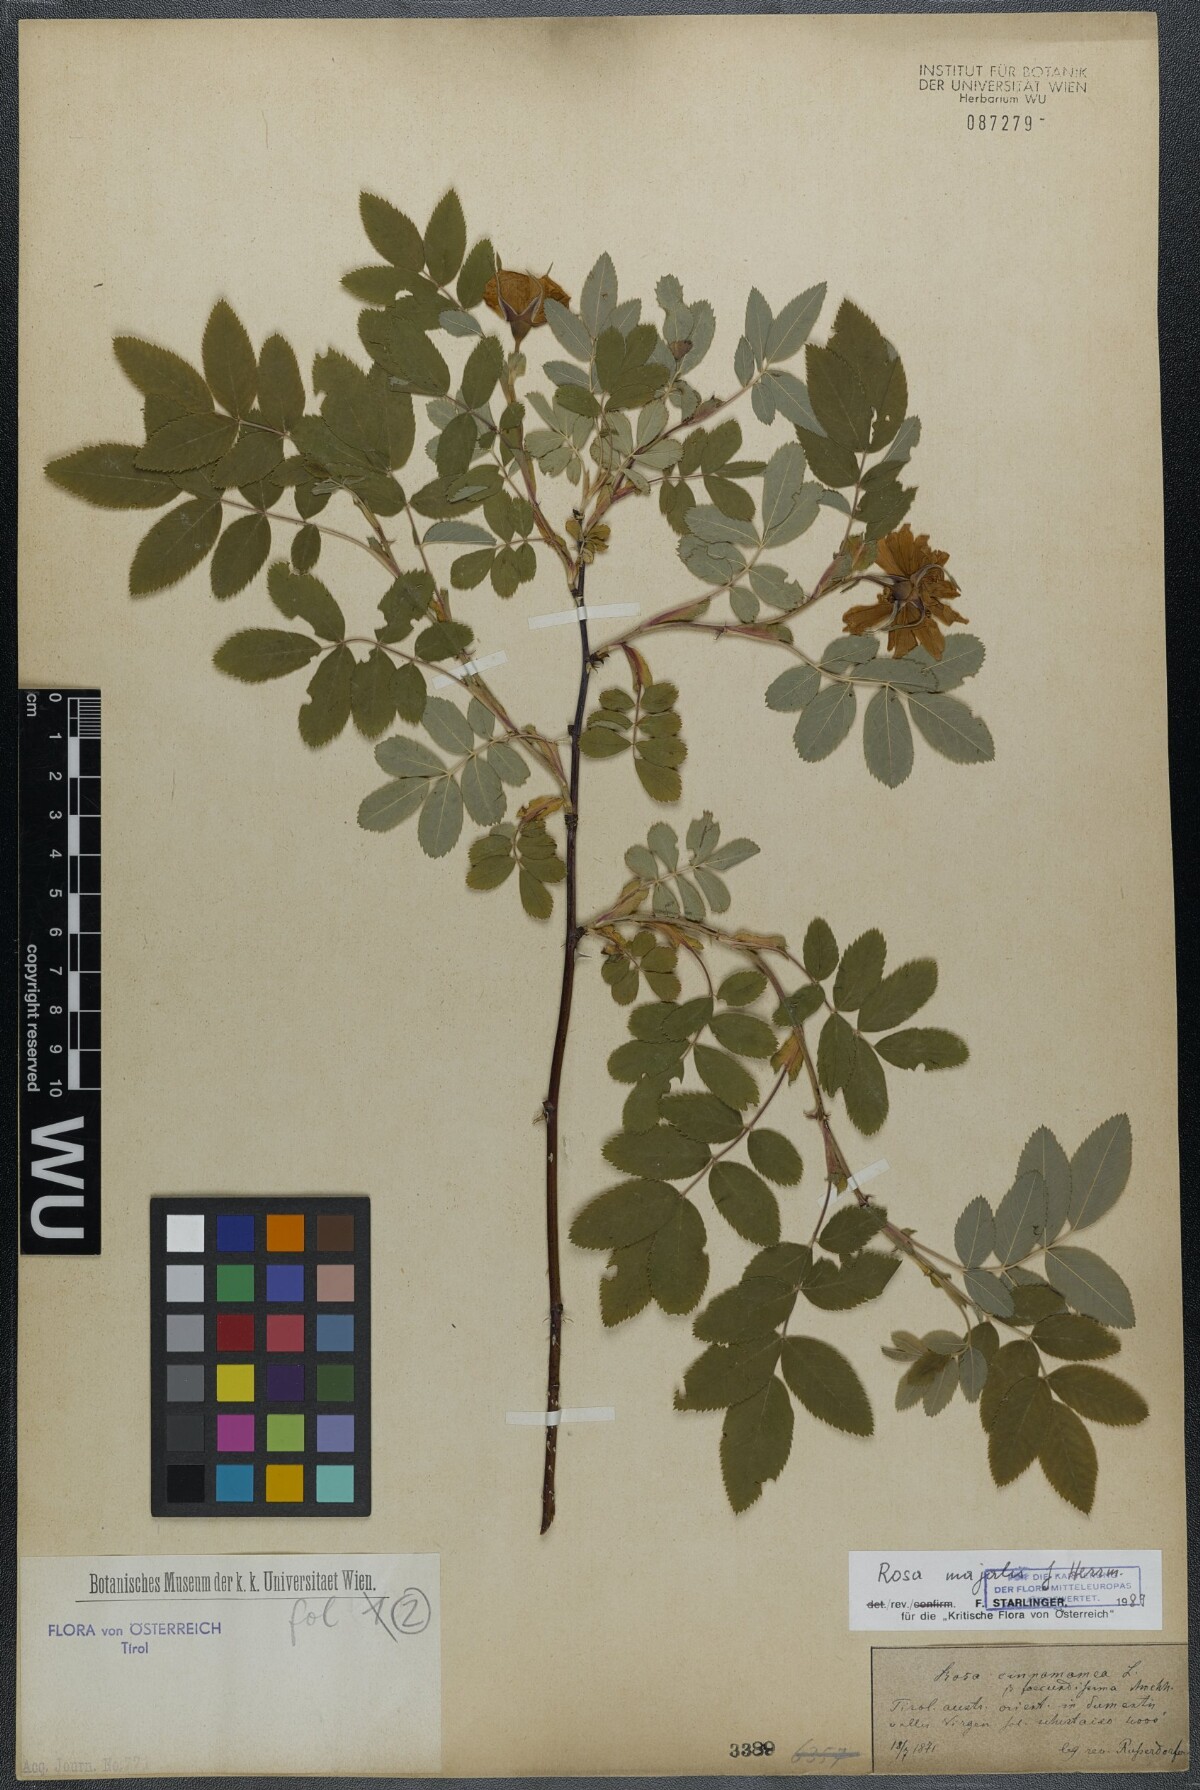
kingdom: Plantae
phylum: Tracheophyta
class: Magnoliopsida
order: Rosales
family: Rosaceae
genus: Rosa
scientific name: Rosa majalis
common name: Cinnamon rose
